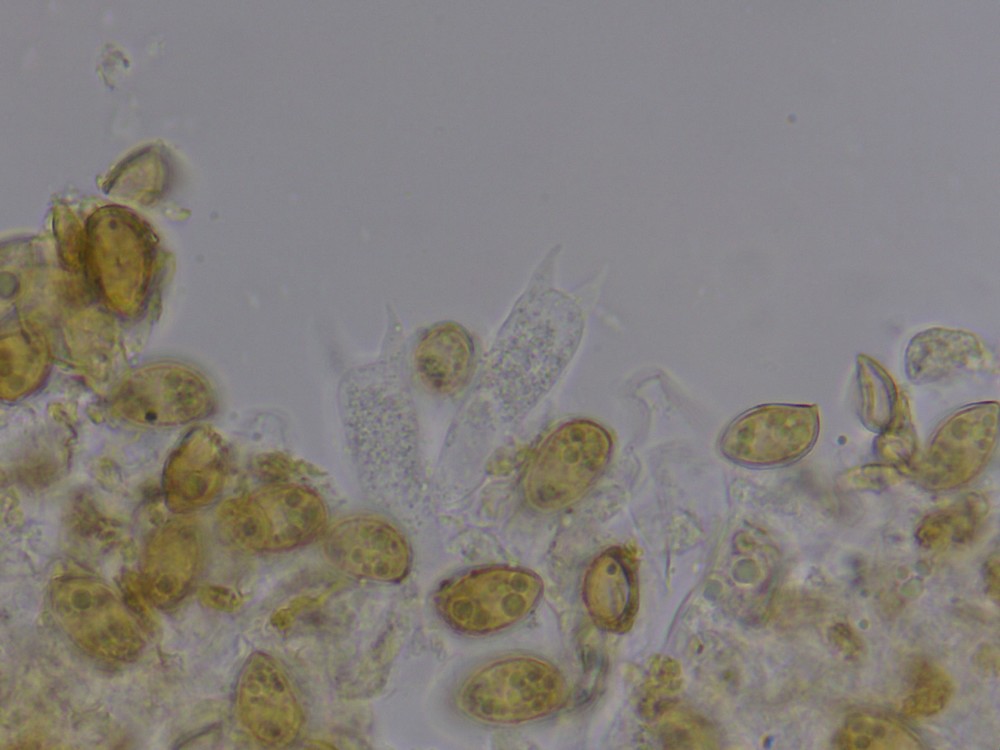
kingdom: Fungi
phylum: Basidiomycota
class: Agaricomycetes
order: Agaricales
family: Hymenogastraceae
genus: Galerina
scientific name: Galerina
